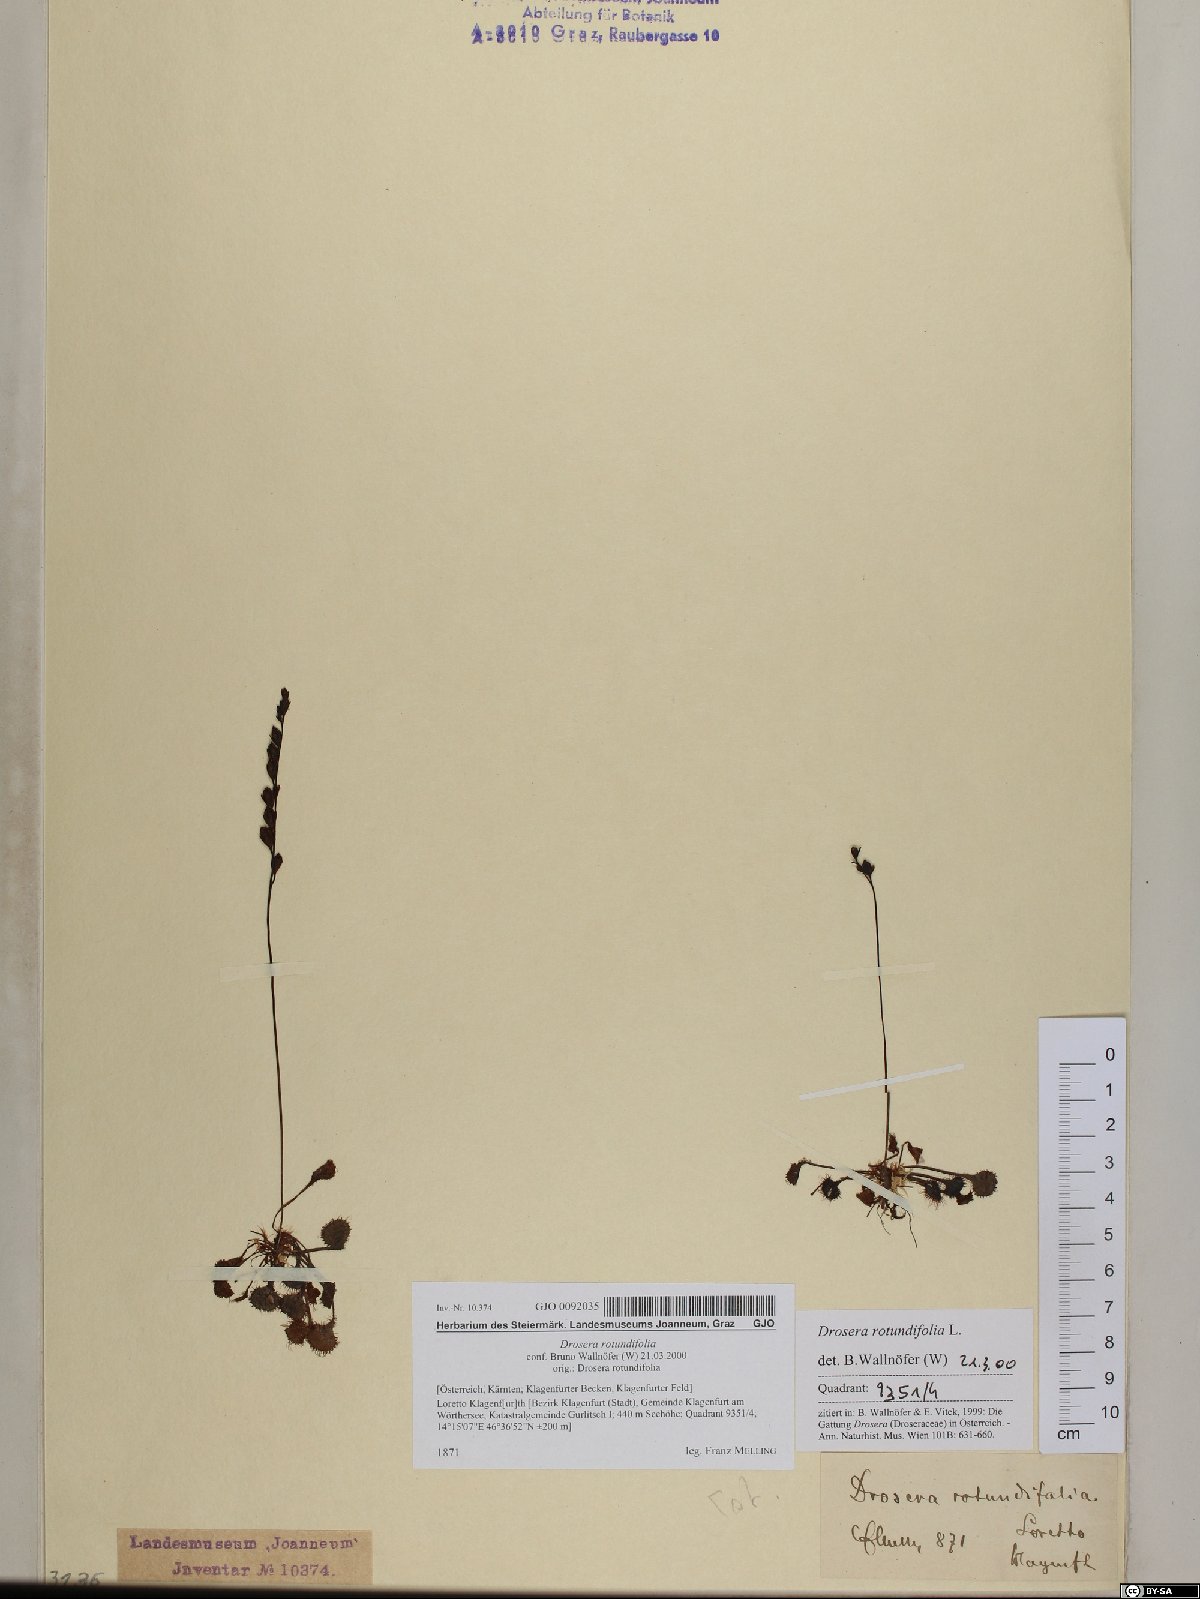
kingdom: Plantae
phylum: Tracheophyta
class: Magnoliopsida
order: Caryophyllales
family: Droseraceae
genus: Drosera
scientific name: Drosera rotundifolia
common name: Round-leaved sundew
